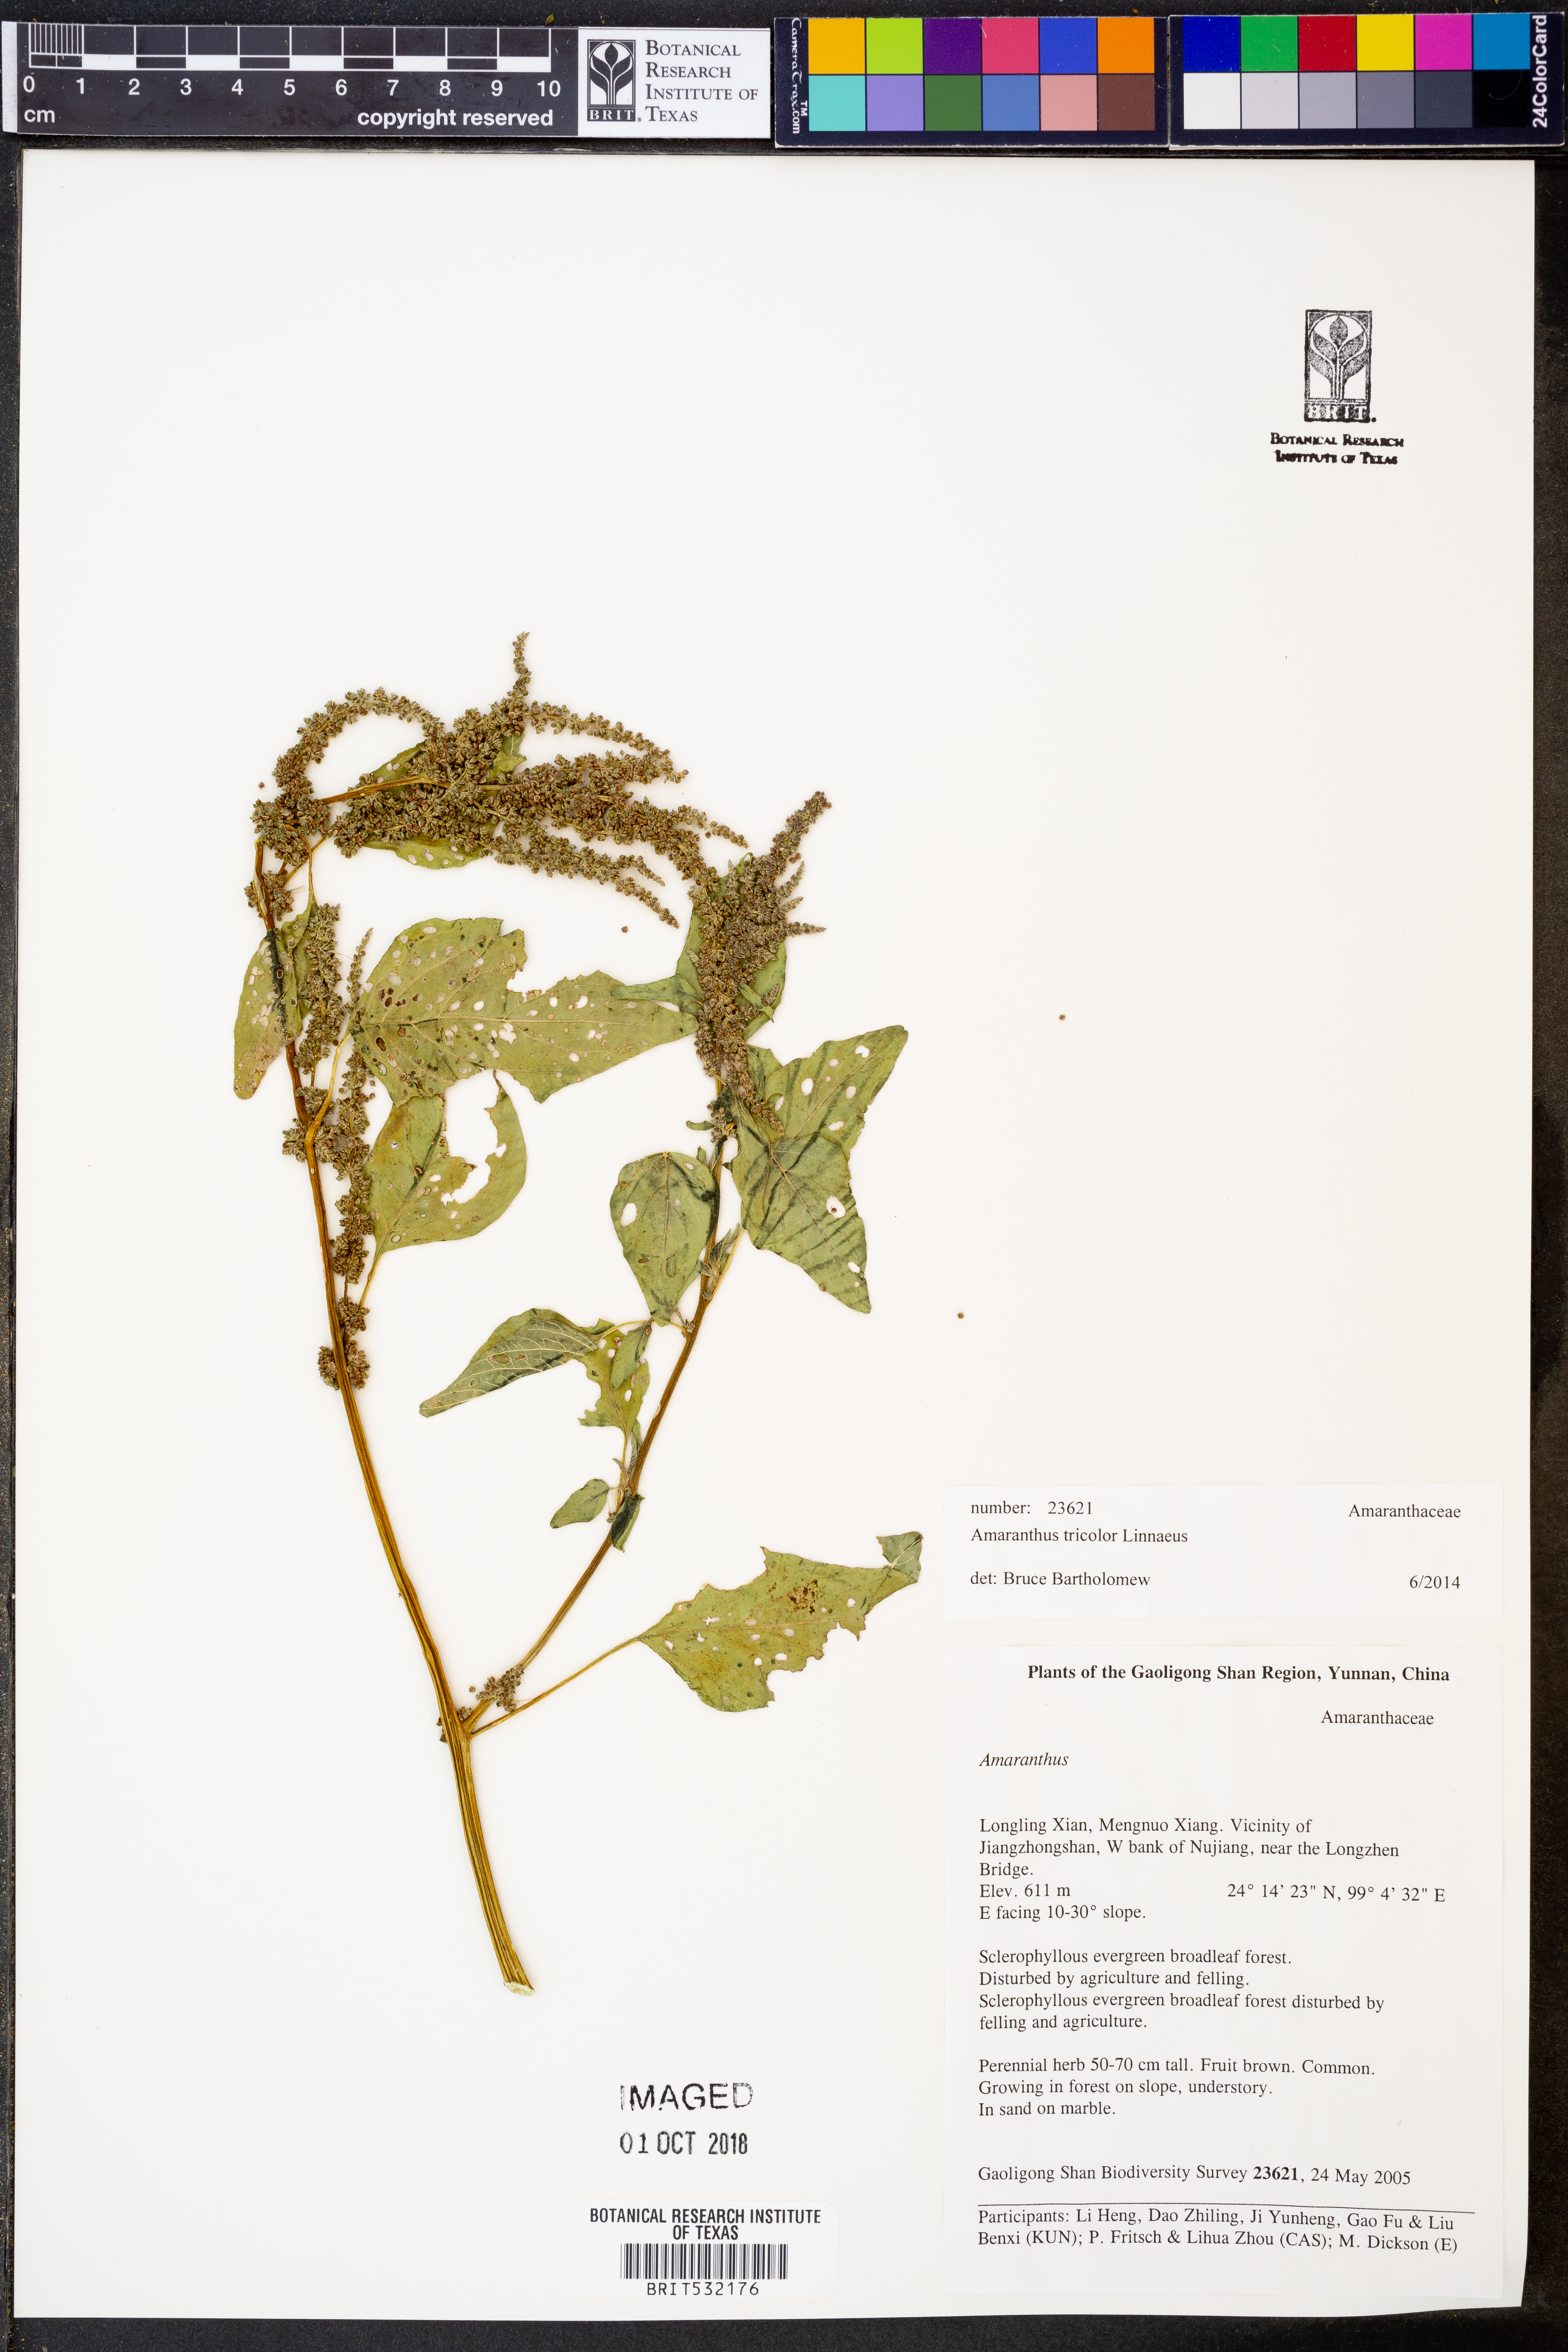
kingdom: Plantae
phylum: Tracheophyta
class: Magnoliopsida
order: Caryophyllales
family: Amaranthaceae
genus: Amaranthus
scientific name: Amaranthus tricolor
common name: Joseph's-coat
